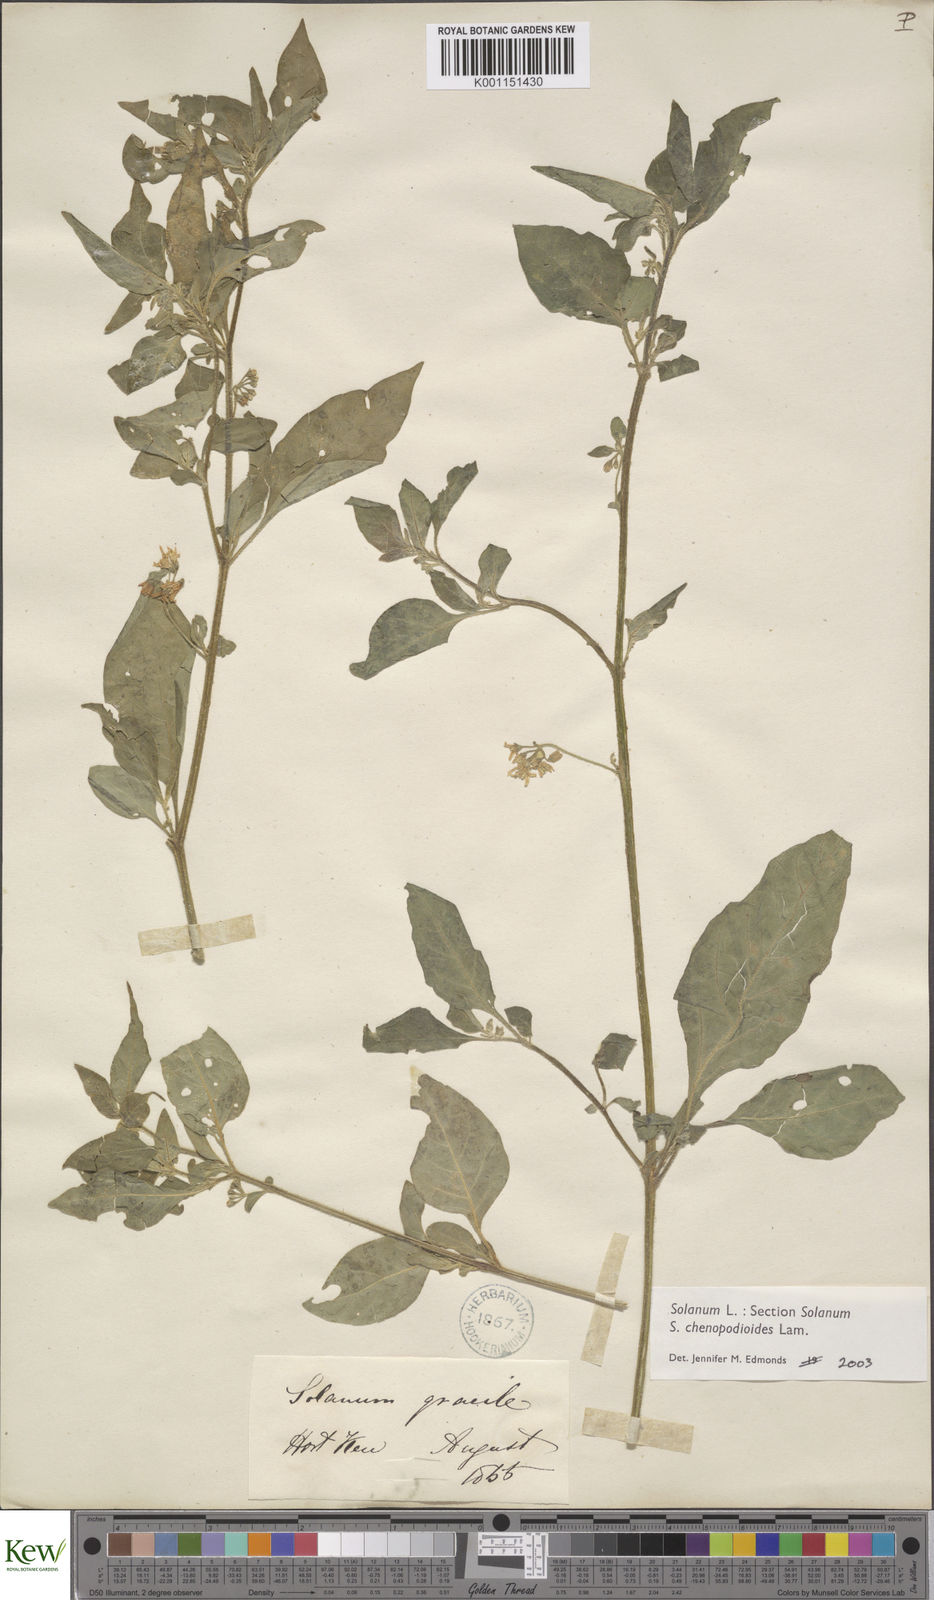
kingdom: Plantae
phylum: Tracheophyta
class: Magnoliopsida
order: Solanales
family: Solanaceae
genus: Solanum
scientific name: Solanum chenopodioides
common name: Tall nightshade
